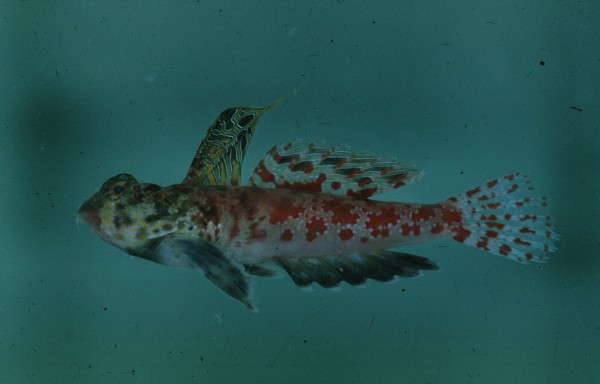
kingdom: Animalia
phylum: Chordata
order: Perciformes
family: Callionymidae
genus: Synchiropus
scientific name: Synchiropus stellatus
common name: Starry dragonet
